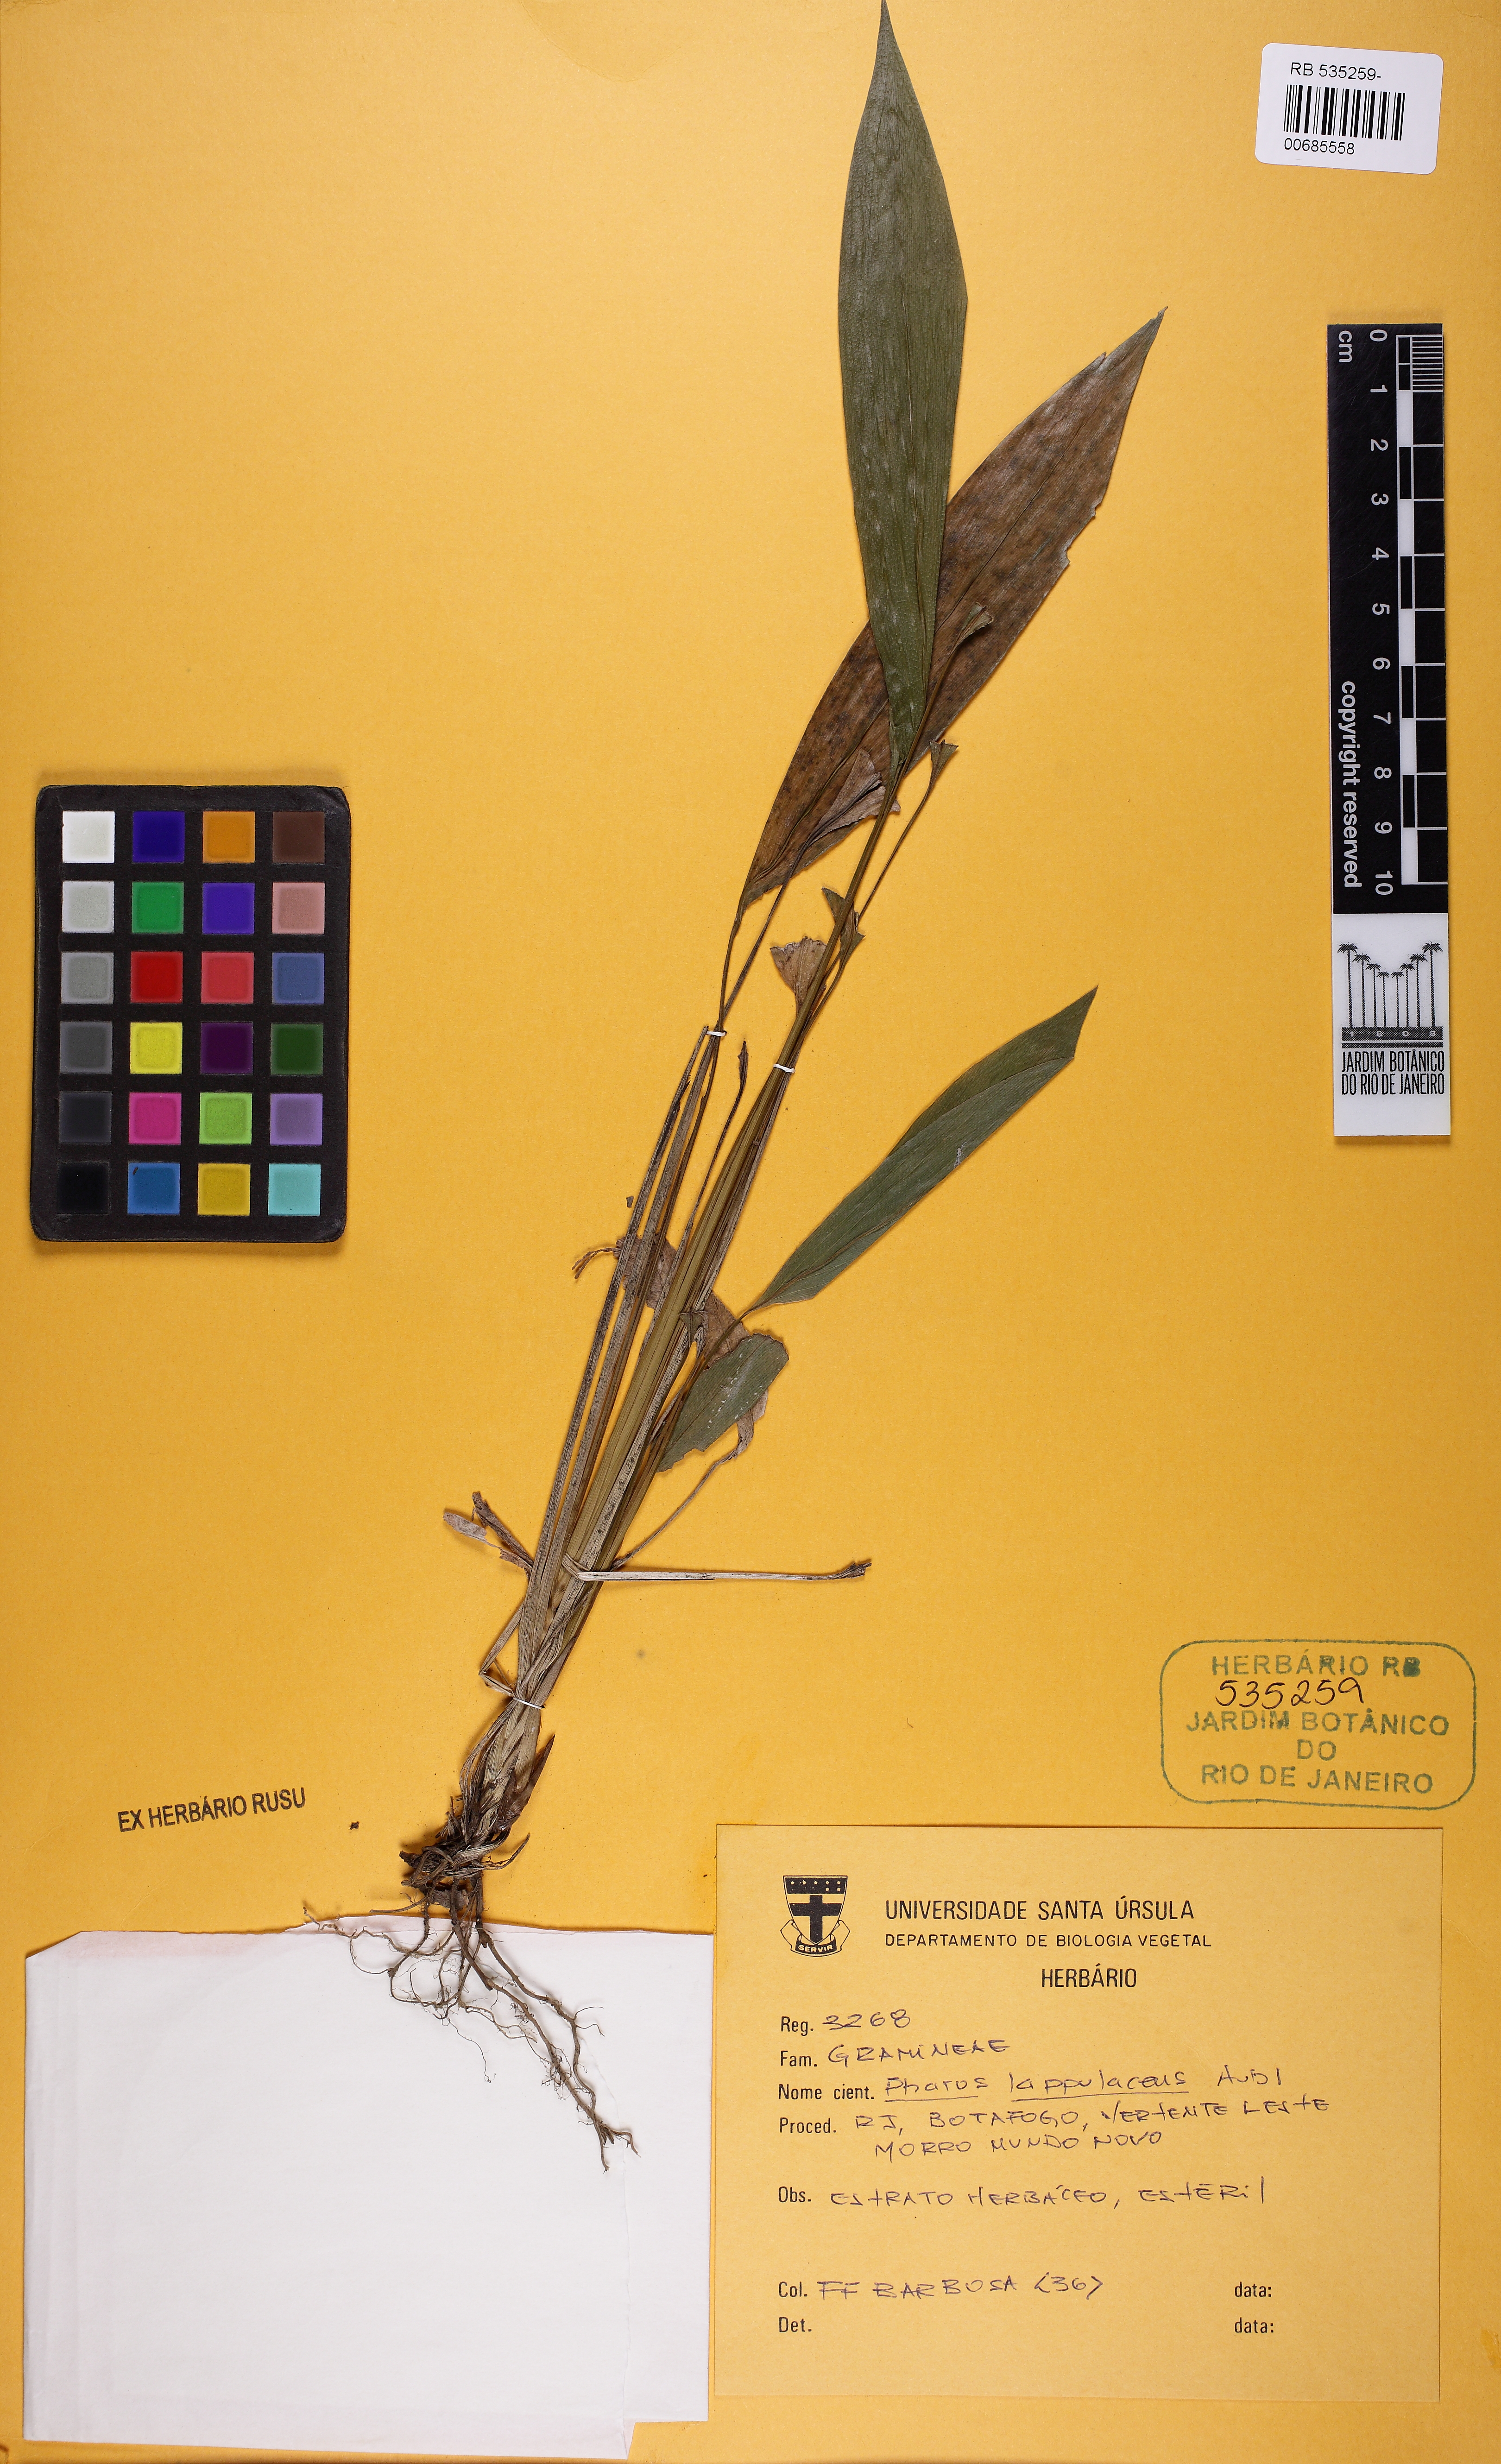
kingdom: Plantae
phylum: Tracheophyta
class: Liliopsida
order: Poales
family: Poaceae
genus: Pharus
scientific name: Pharus lappulaceus
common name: Creeping leafstalk grass
